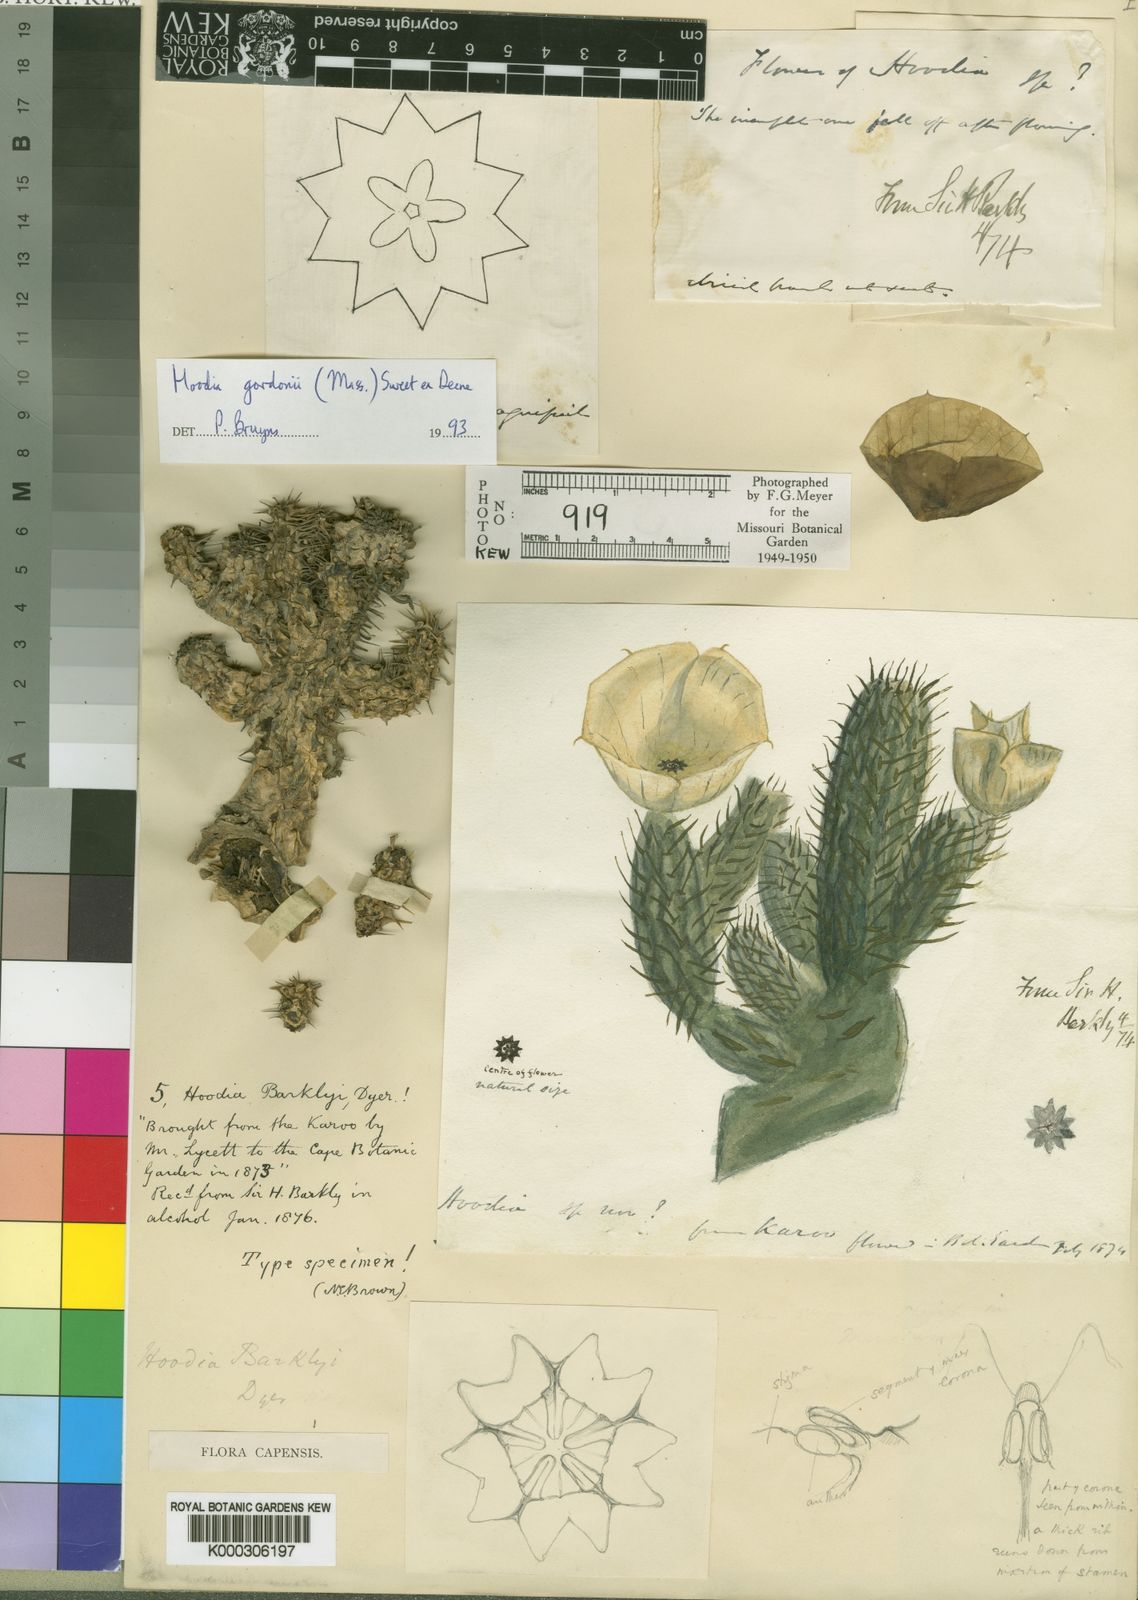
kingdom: Plantae
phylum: Tracheophyta
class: Magnoliopsida
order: Gentianales
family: Apocynaceae
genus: Ceropegia
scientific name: Ceropegia gordonii
